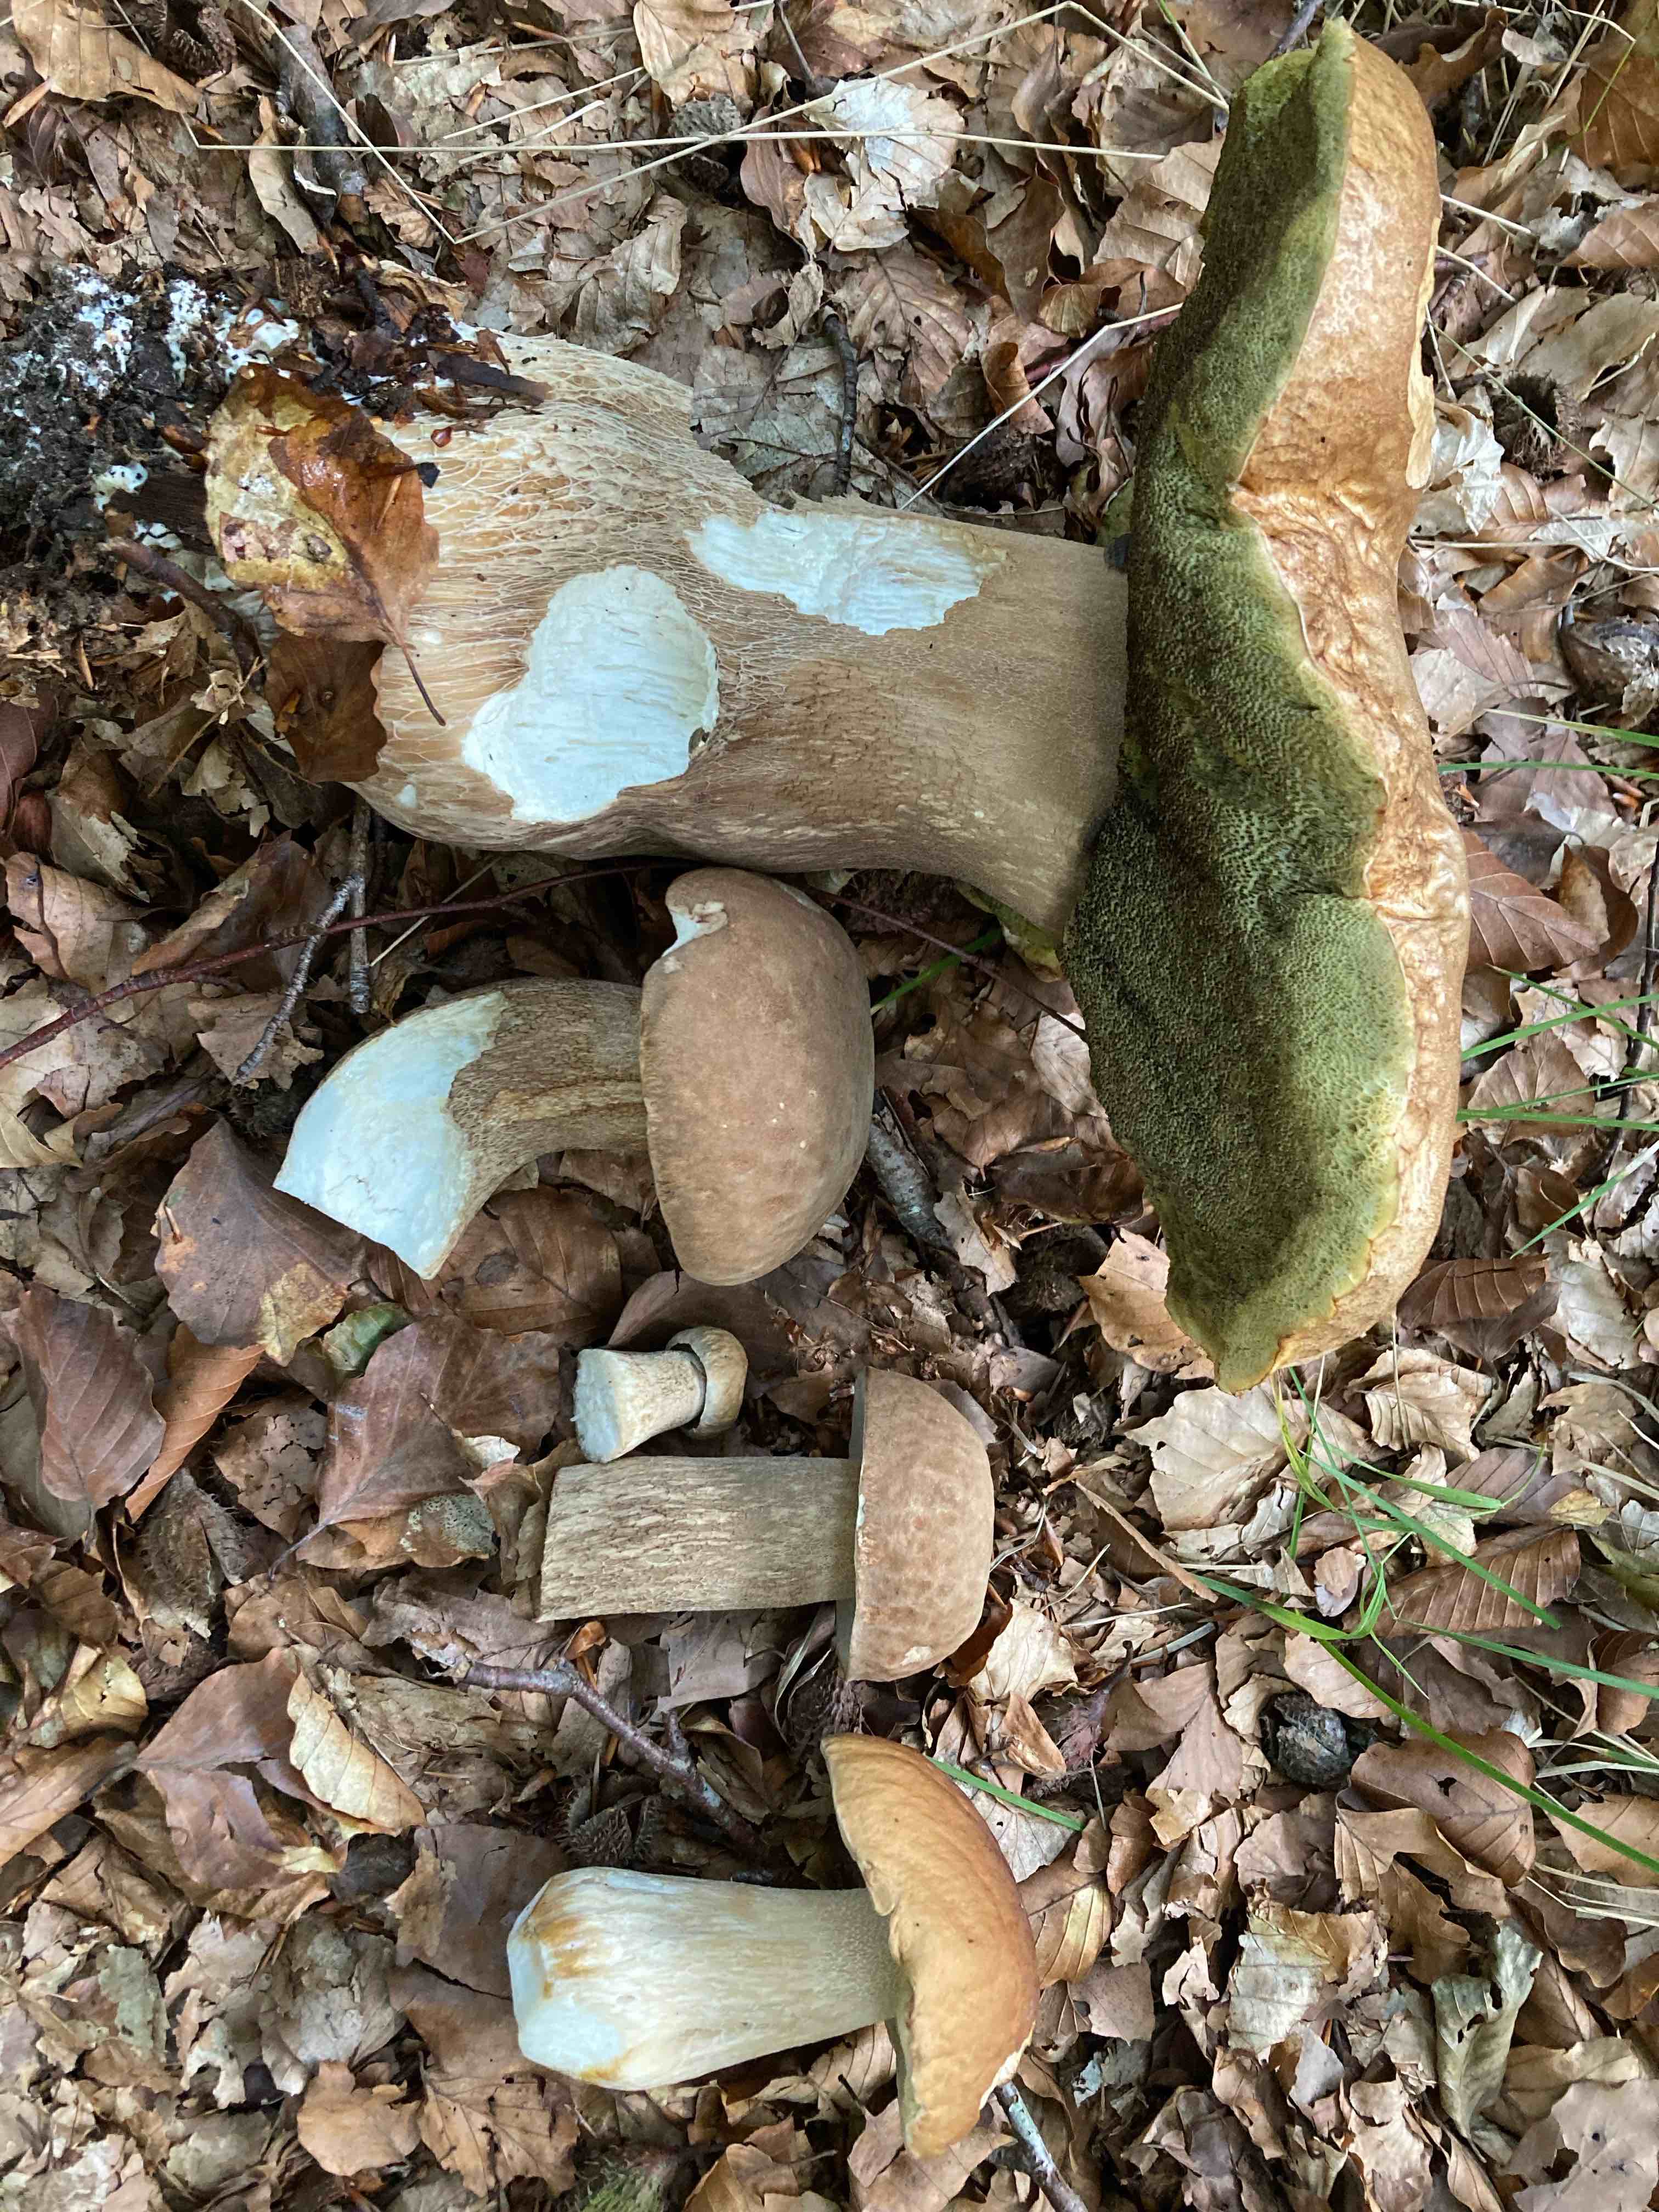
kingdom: Fungi
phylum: Basidiomycota
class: Agaricomycetes
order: Boletales
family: Boletaceae
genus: Boletus
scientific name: Boletus reticulatus
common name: sommer-rørhat
